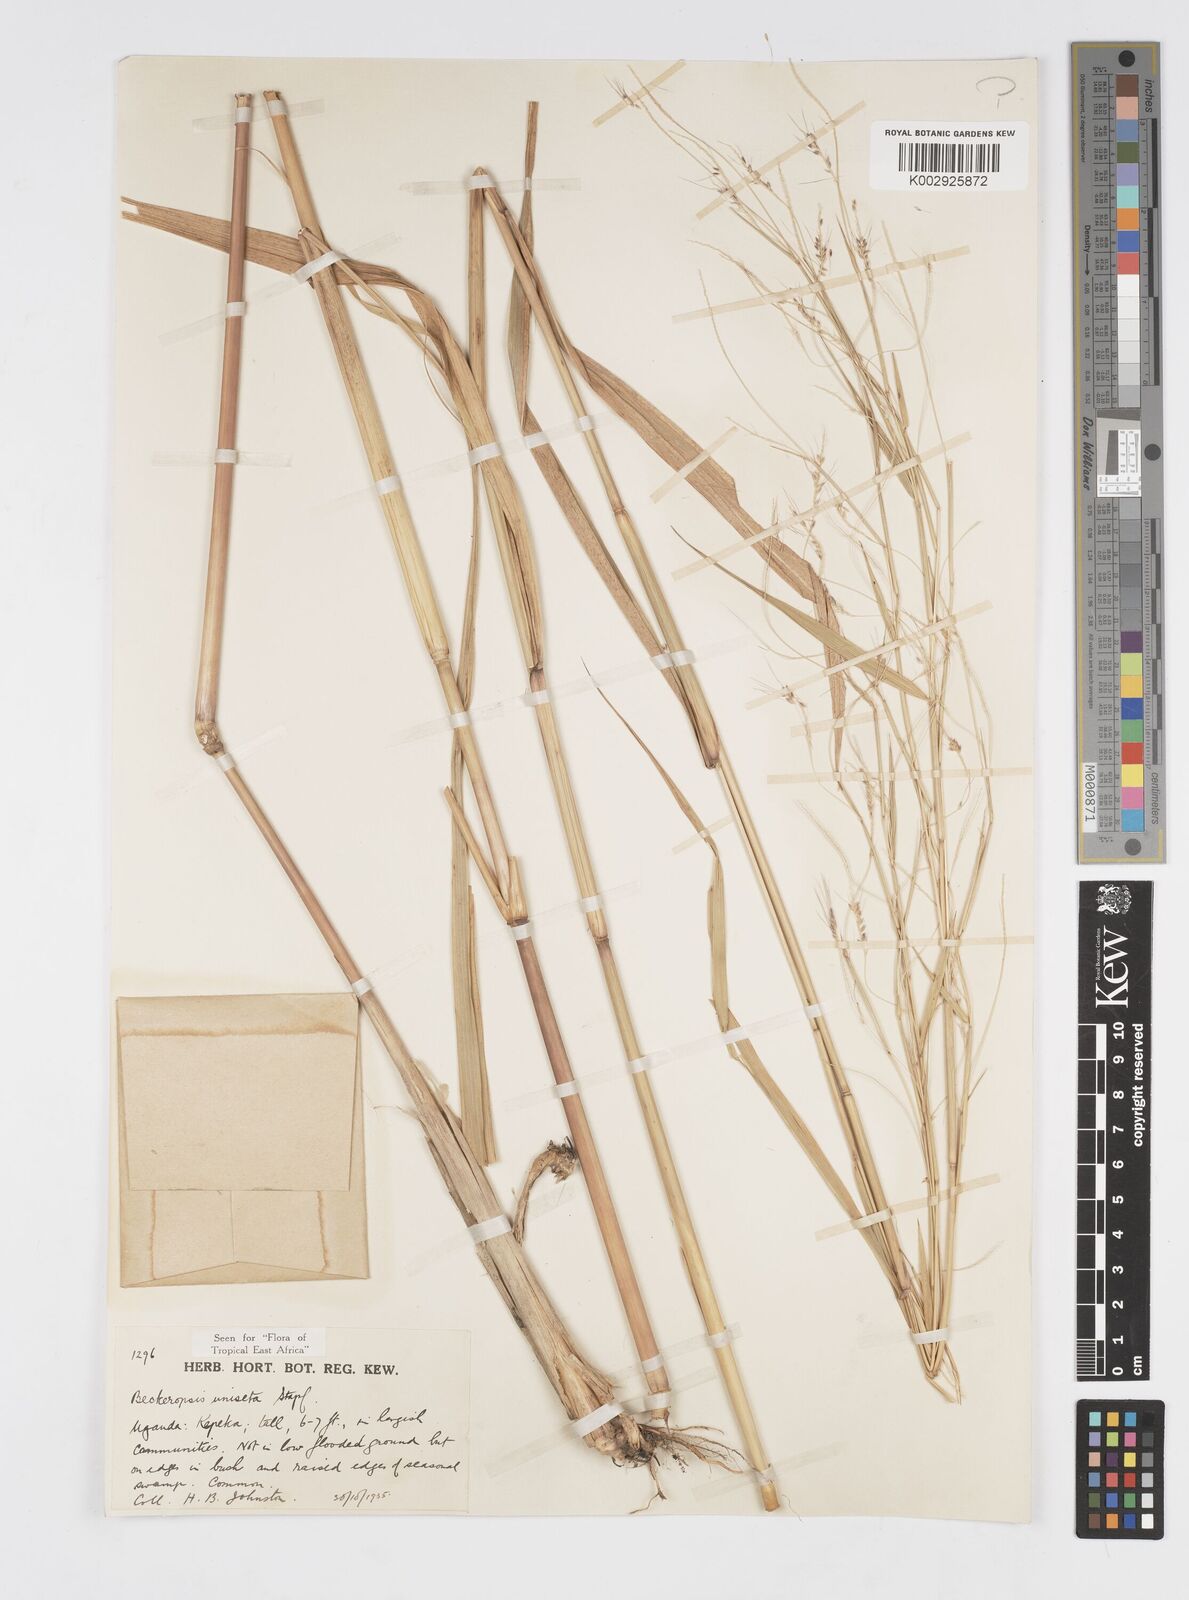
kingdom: Plantae
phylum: Tracheophyta
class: Liliopsida
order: Poales
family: Poaceae
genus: Cenchrus
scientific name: Cenchrus unisetus
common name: Natal grass
